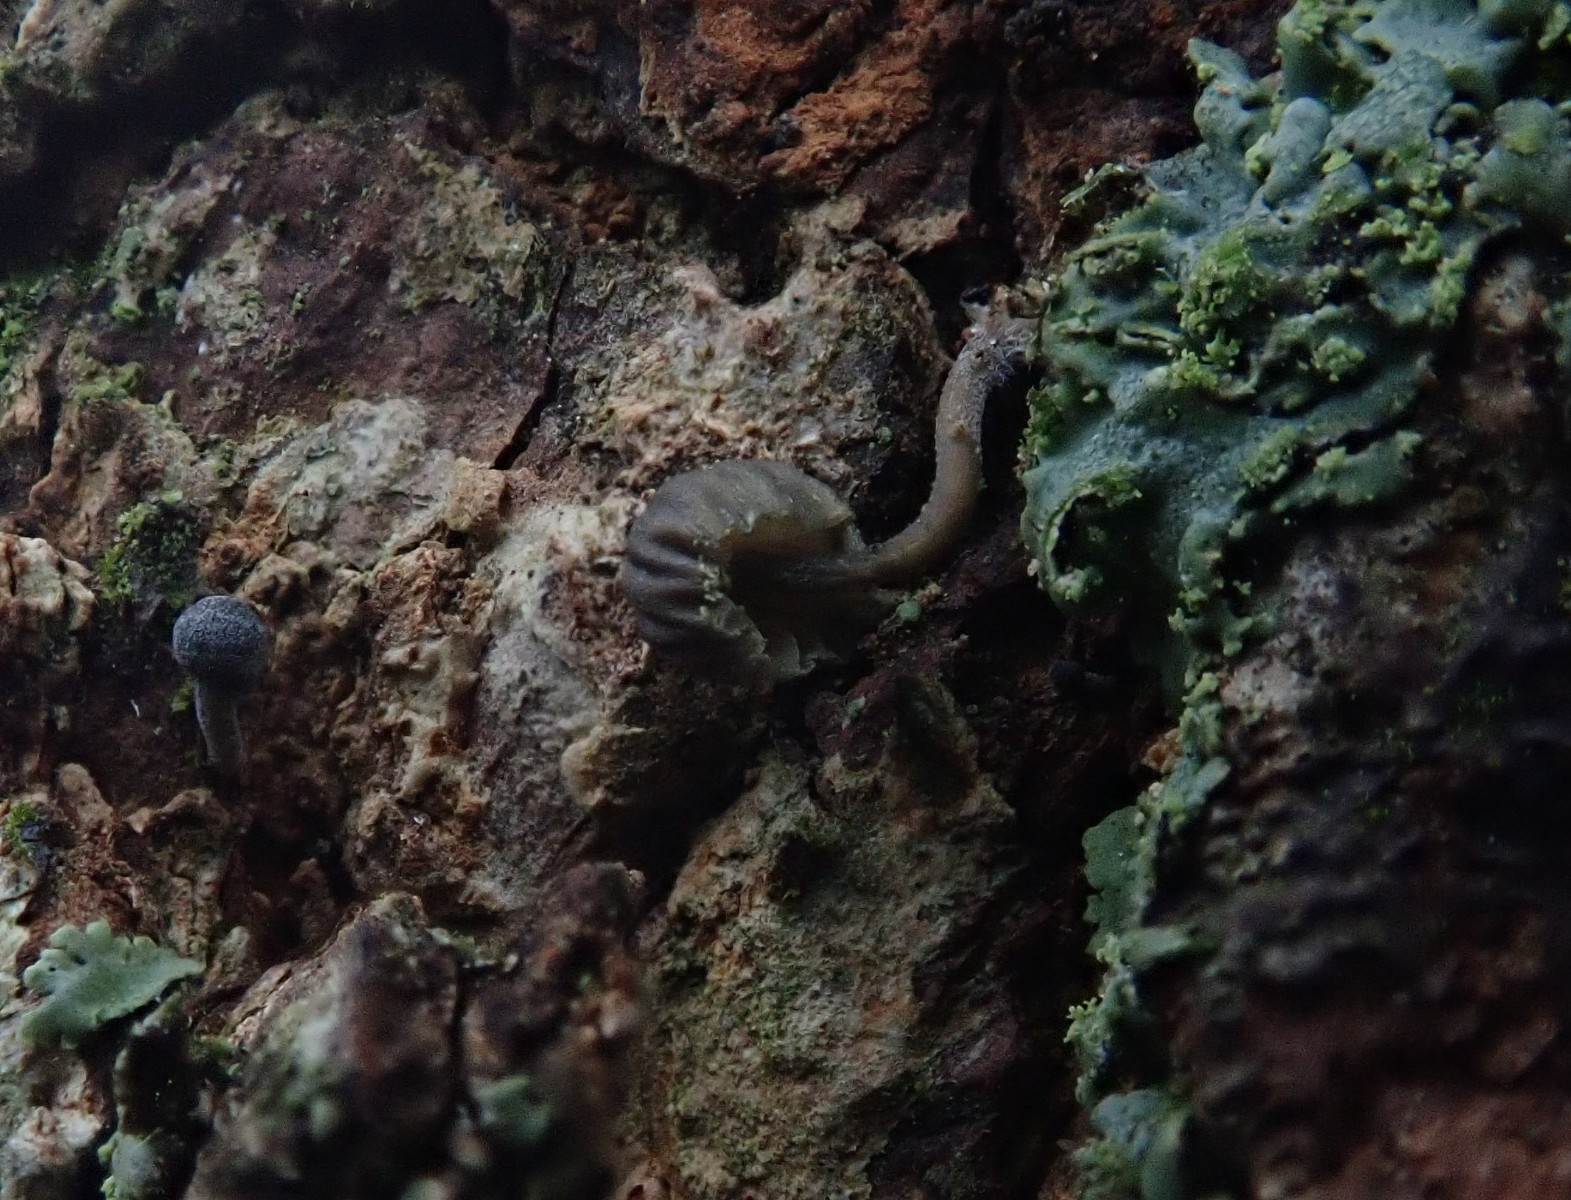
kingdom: Fungi
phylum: Basidiomycota
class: Agaricomycetes
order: Agaricales
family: Mycenaceae
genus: Mycena
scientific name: Mycena pseudocorticola
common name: gråblå bark-huesvamp
